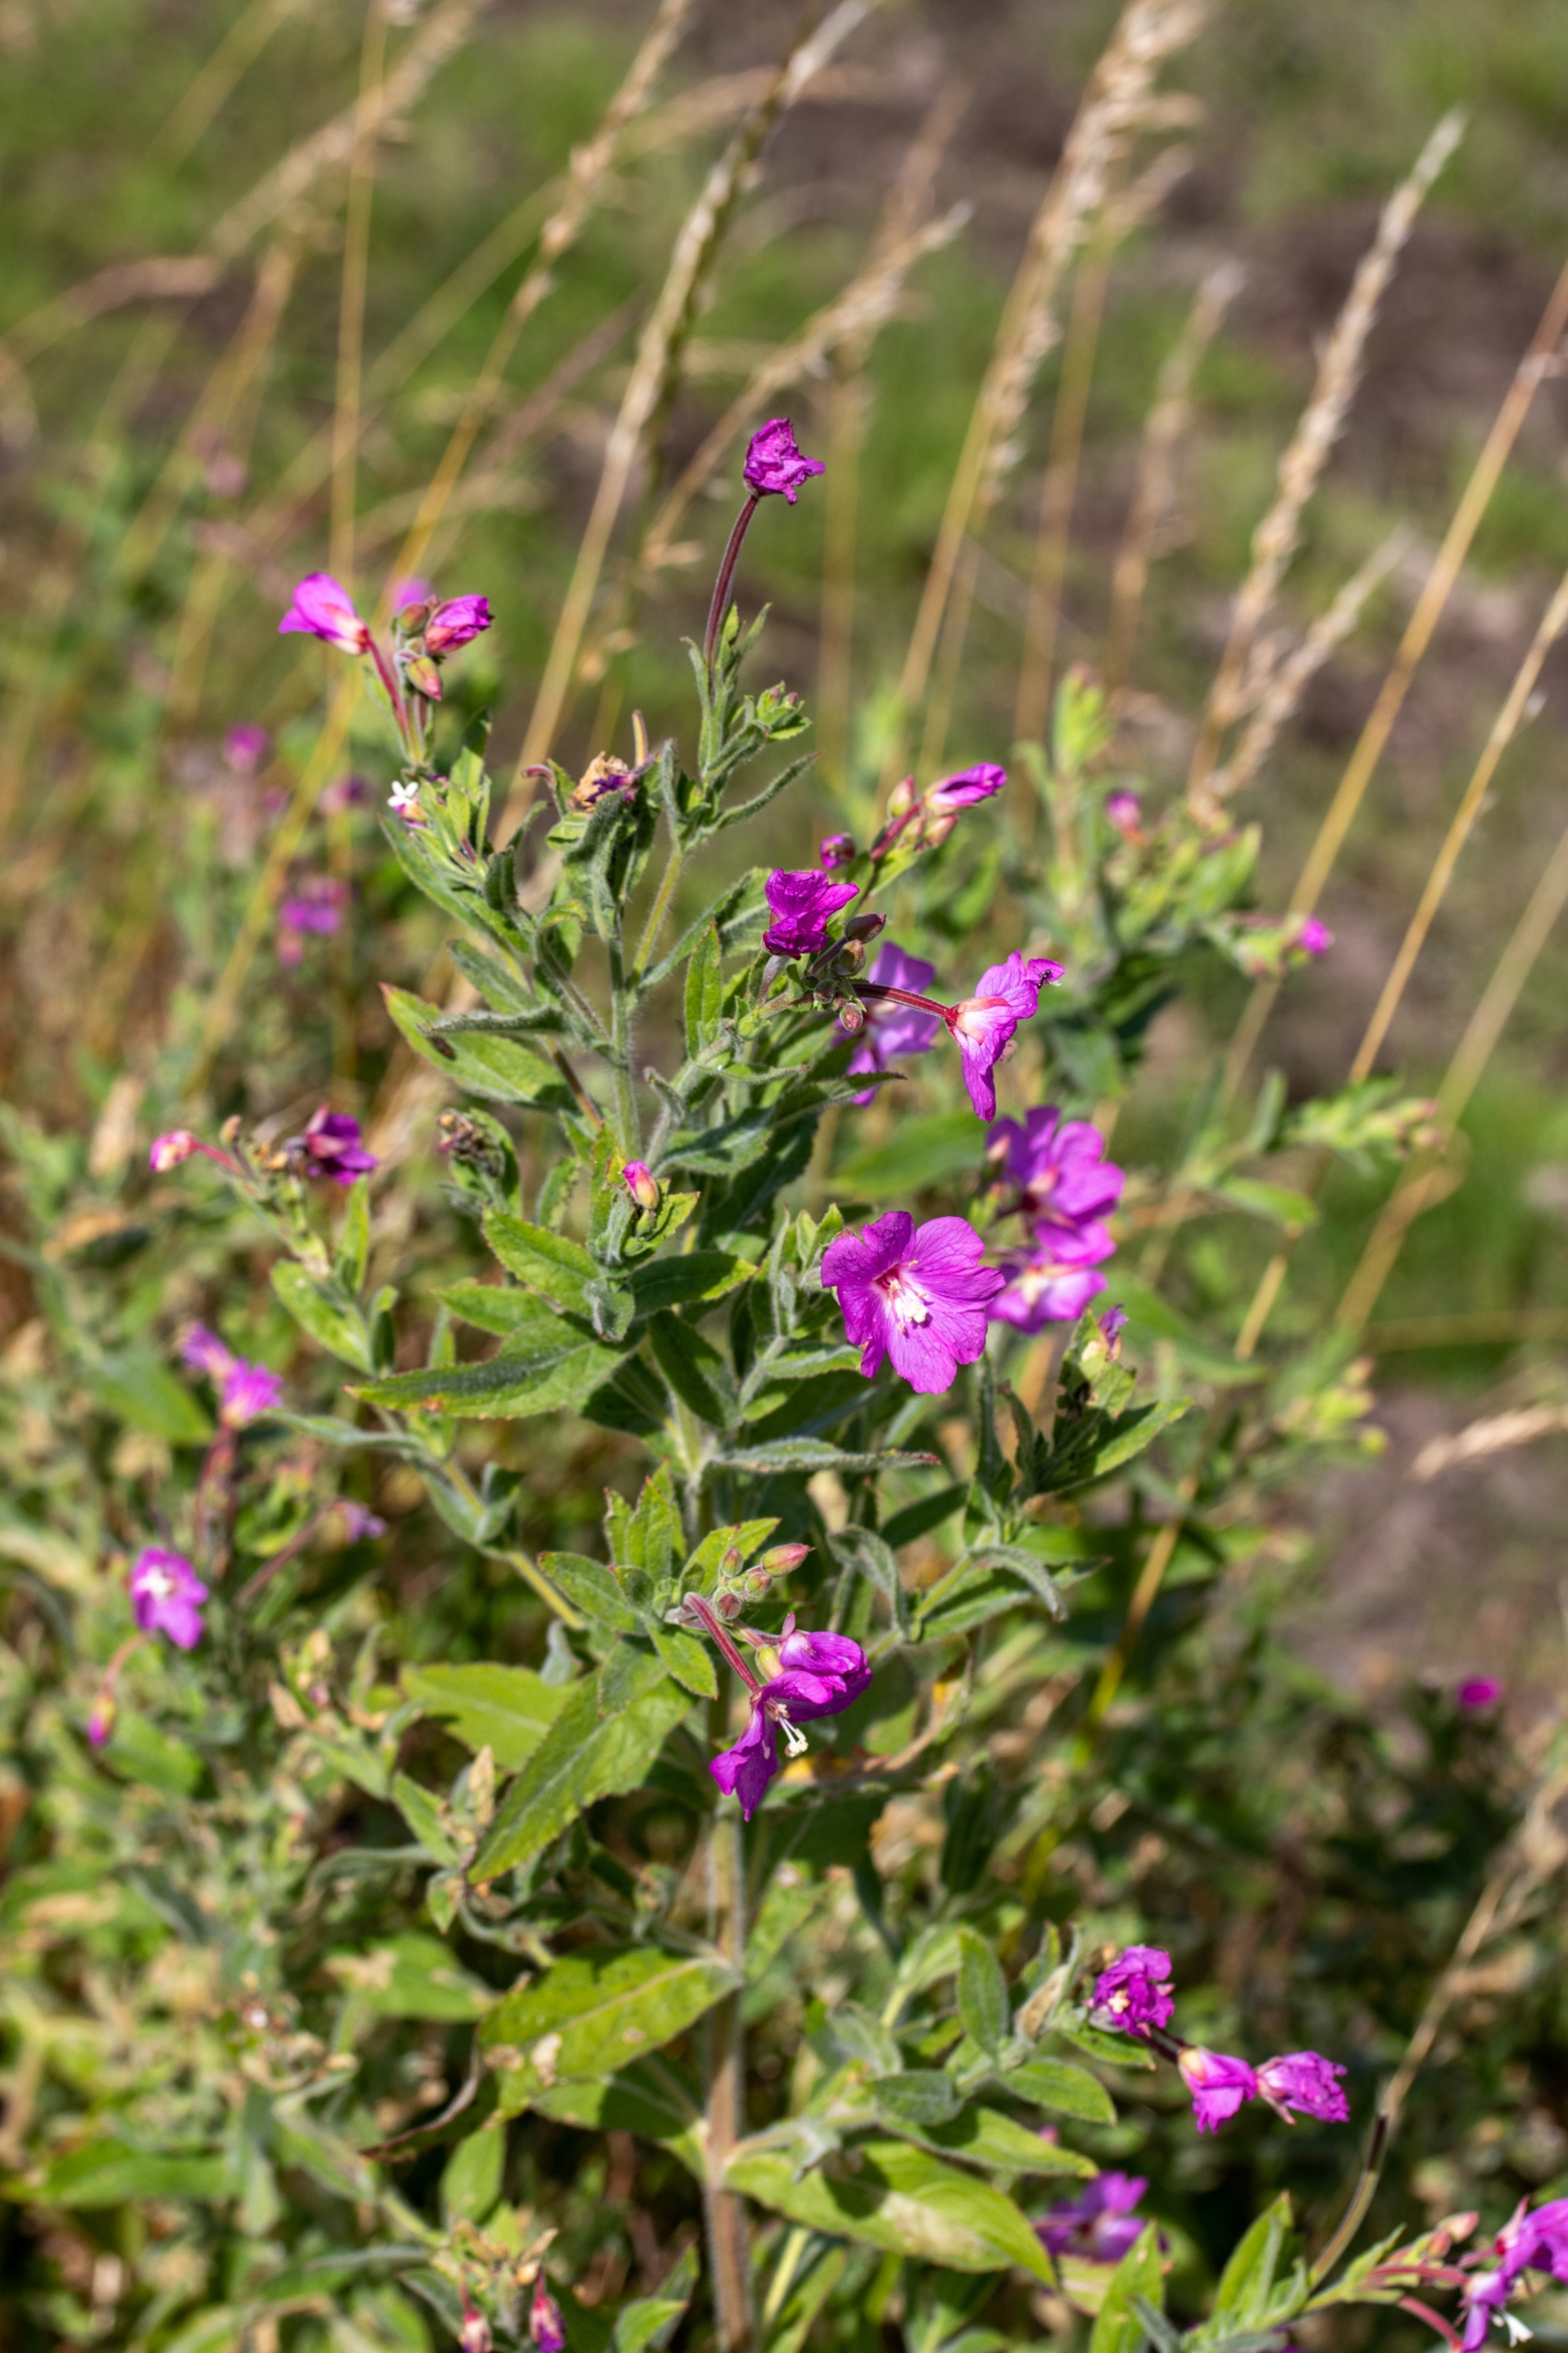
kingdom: Plantae
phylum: Tracheophyta
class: Magnoliopsida
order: Myrtales
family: Onagraceae
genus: Epilobium
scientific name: Epilobium hirsutum
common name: Lådden dueurt
